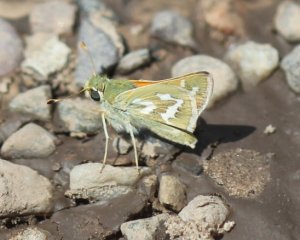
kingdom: Animalia
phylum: Arthropoda
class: Insecta
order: Lepidoptera
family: Hesperiidae
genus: Hesperia
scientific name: Hesperia comma
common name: Western Branded Skipper
